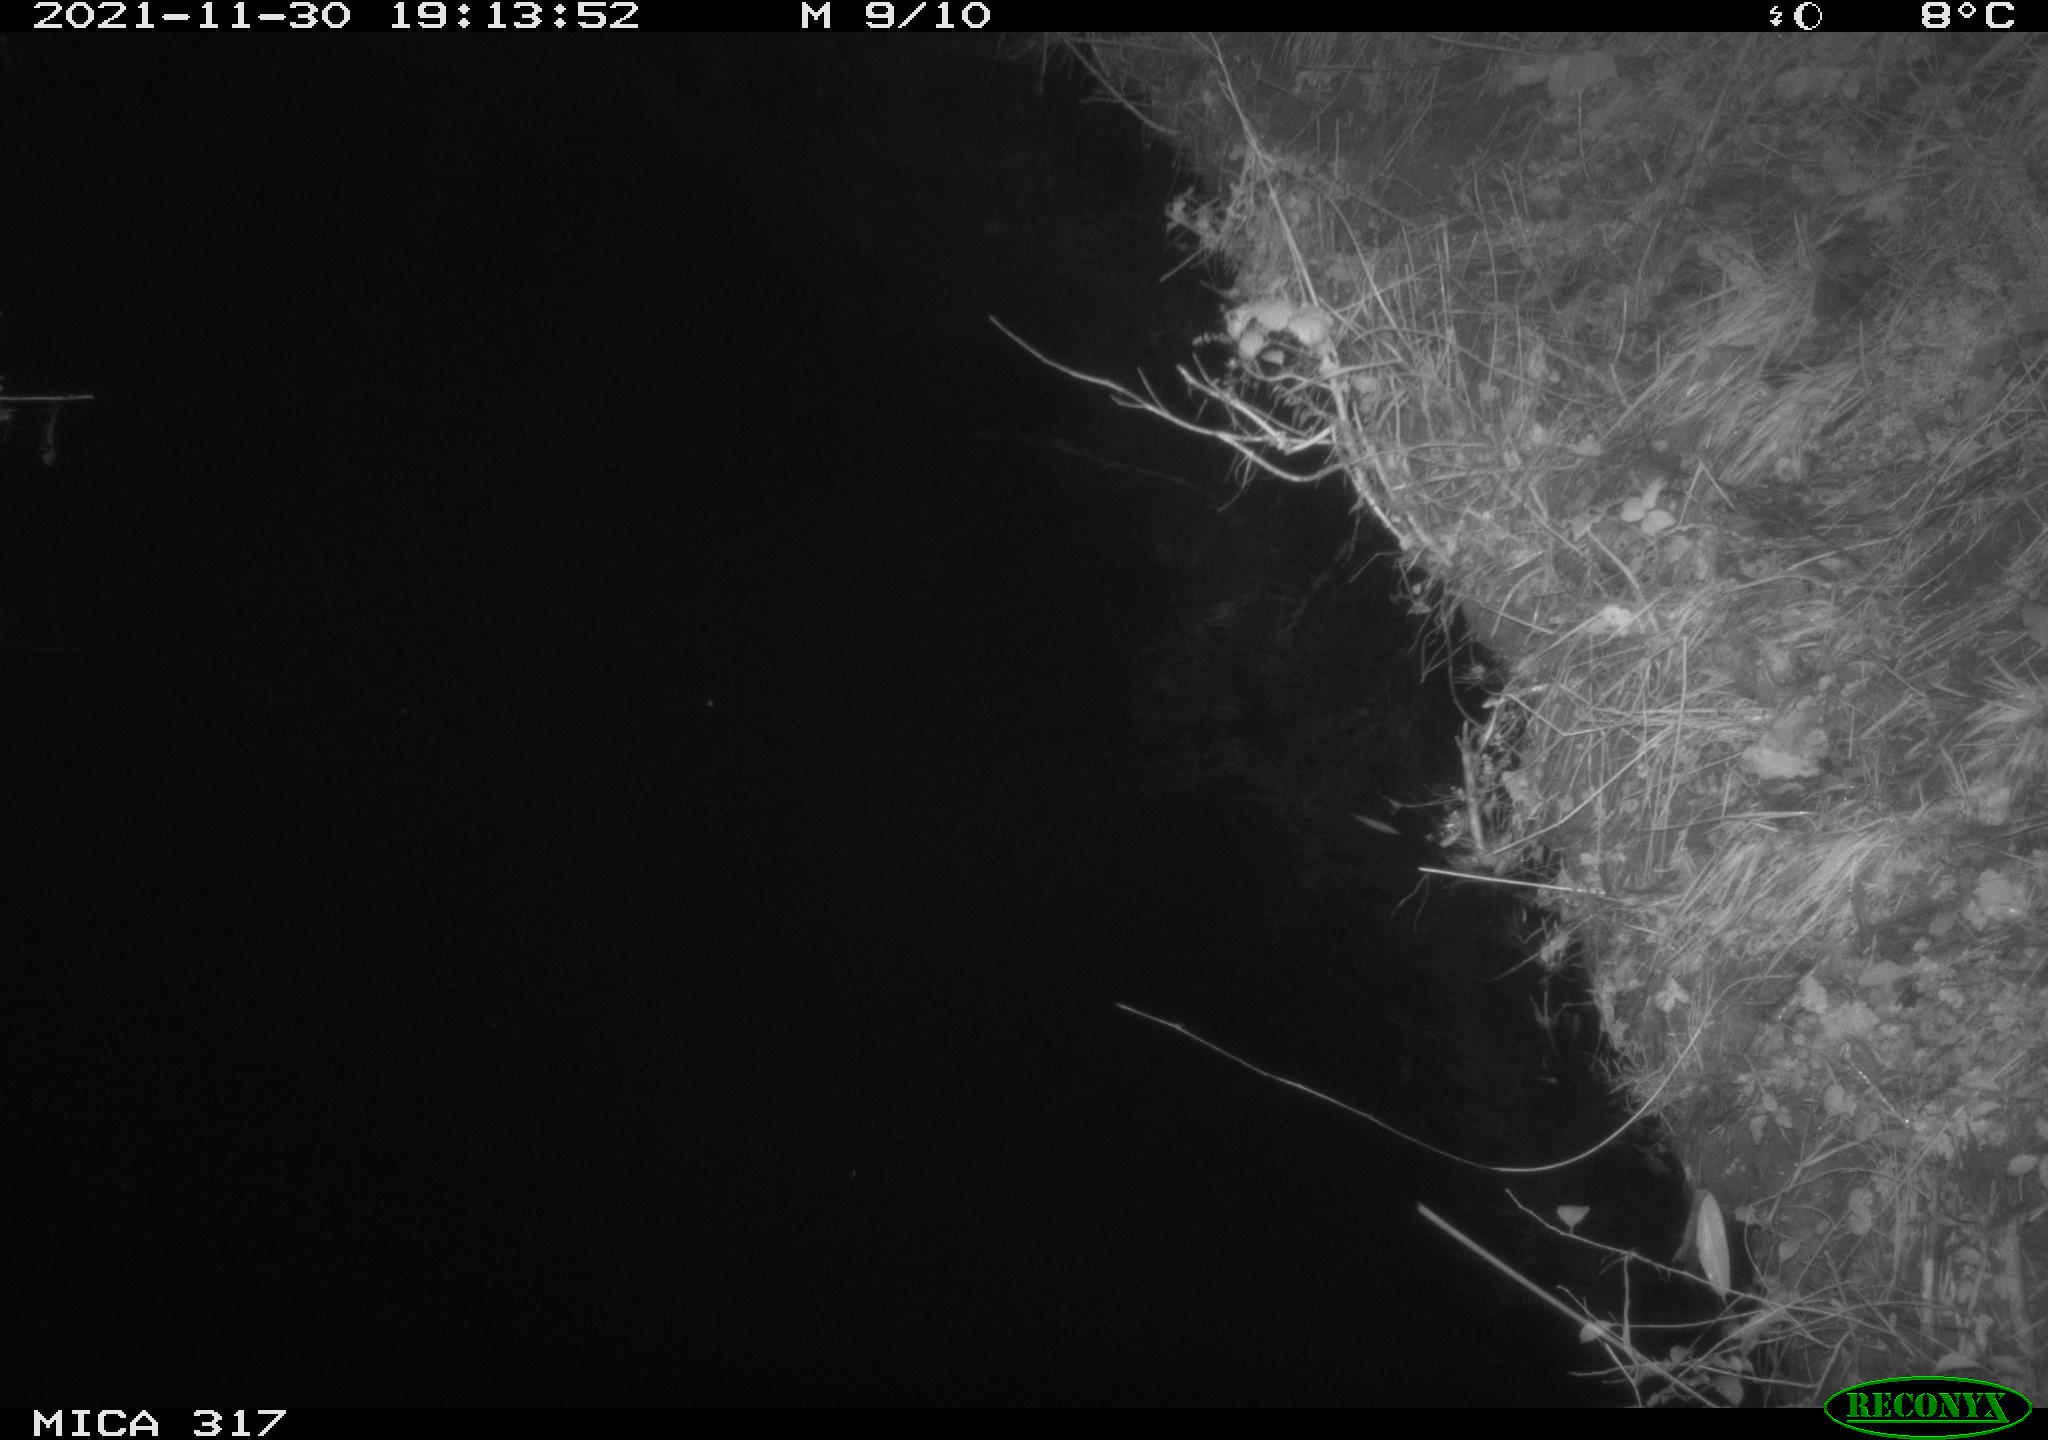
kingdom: Animalia
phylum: Chordata
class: Mammalia
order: Rodentia
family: Muridae
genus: Rattus
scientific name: Rattus norvegicus
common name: Brown rat
